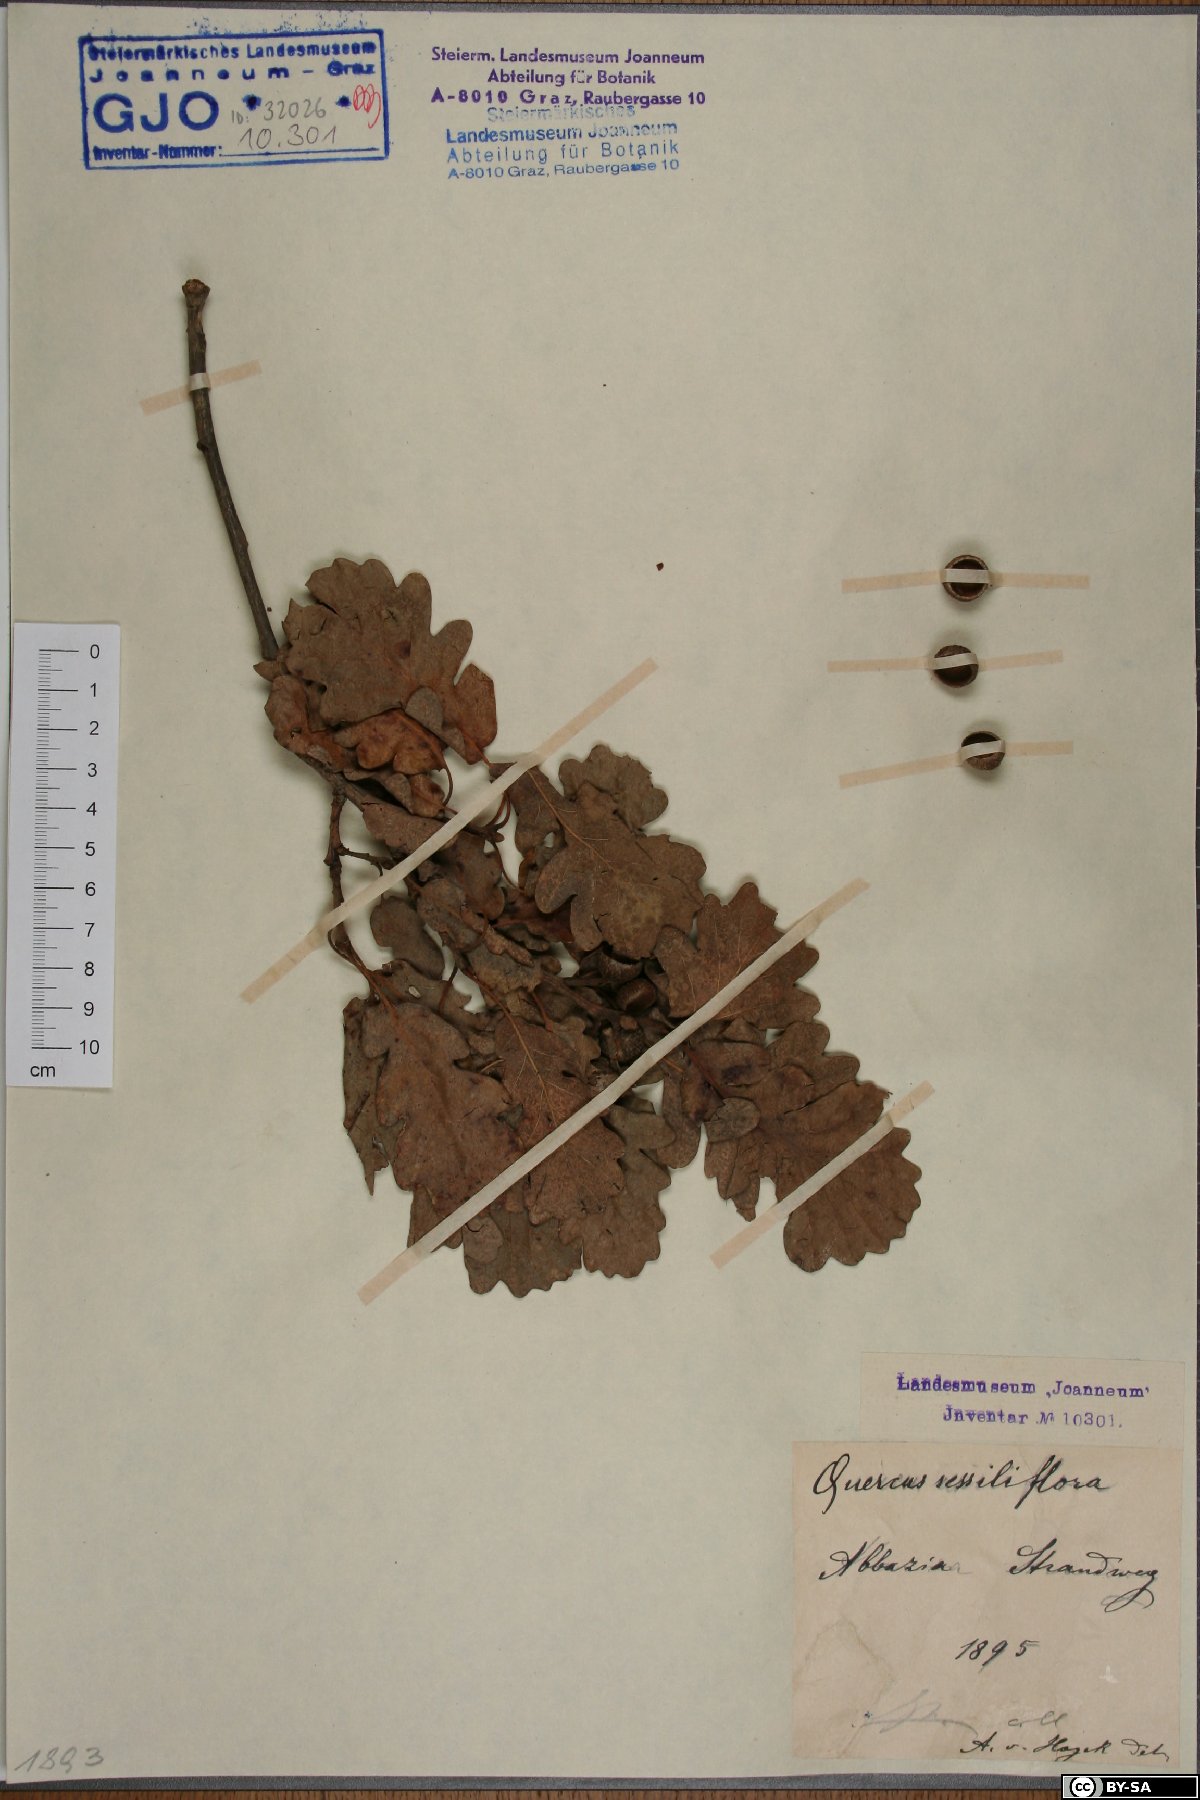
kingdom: Plantae
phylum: Tracheophyta
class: Magnoliopsida
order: Fagales
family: Fagaceae
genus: Quercus
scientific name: Quercus petraea
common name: Sessile oak
